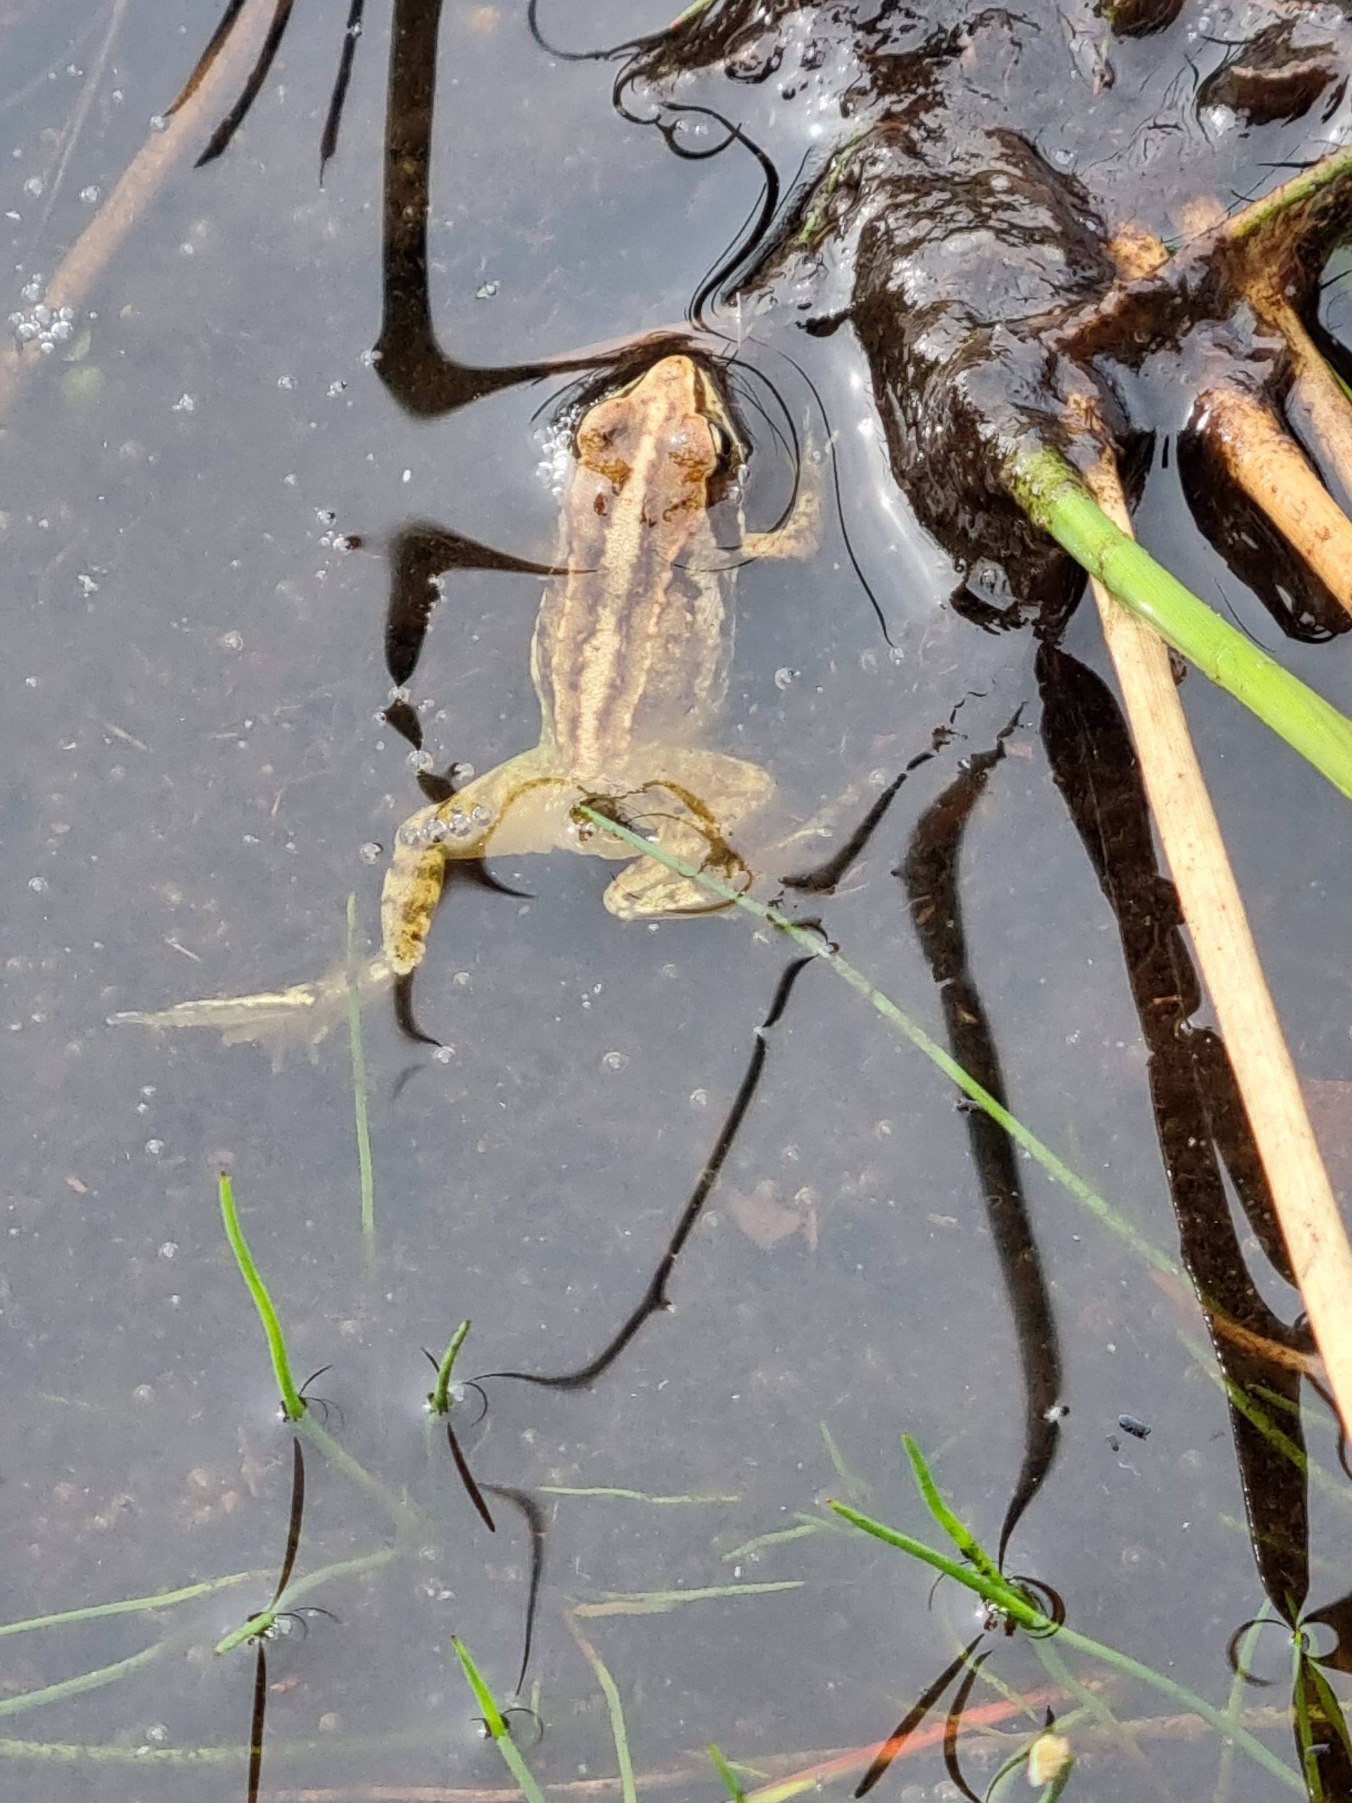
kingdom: Animalia
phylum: Chordata
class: Amphibia
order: Anura
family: Ranidae
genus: Rana
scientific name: Rana arvalis
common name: Spidssnudet frø
